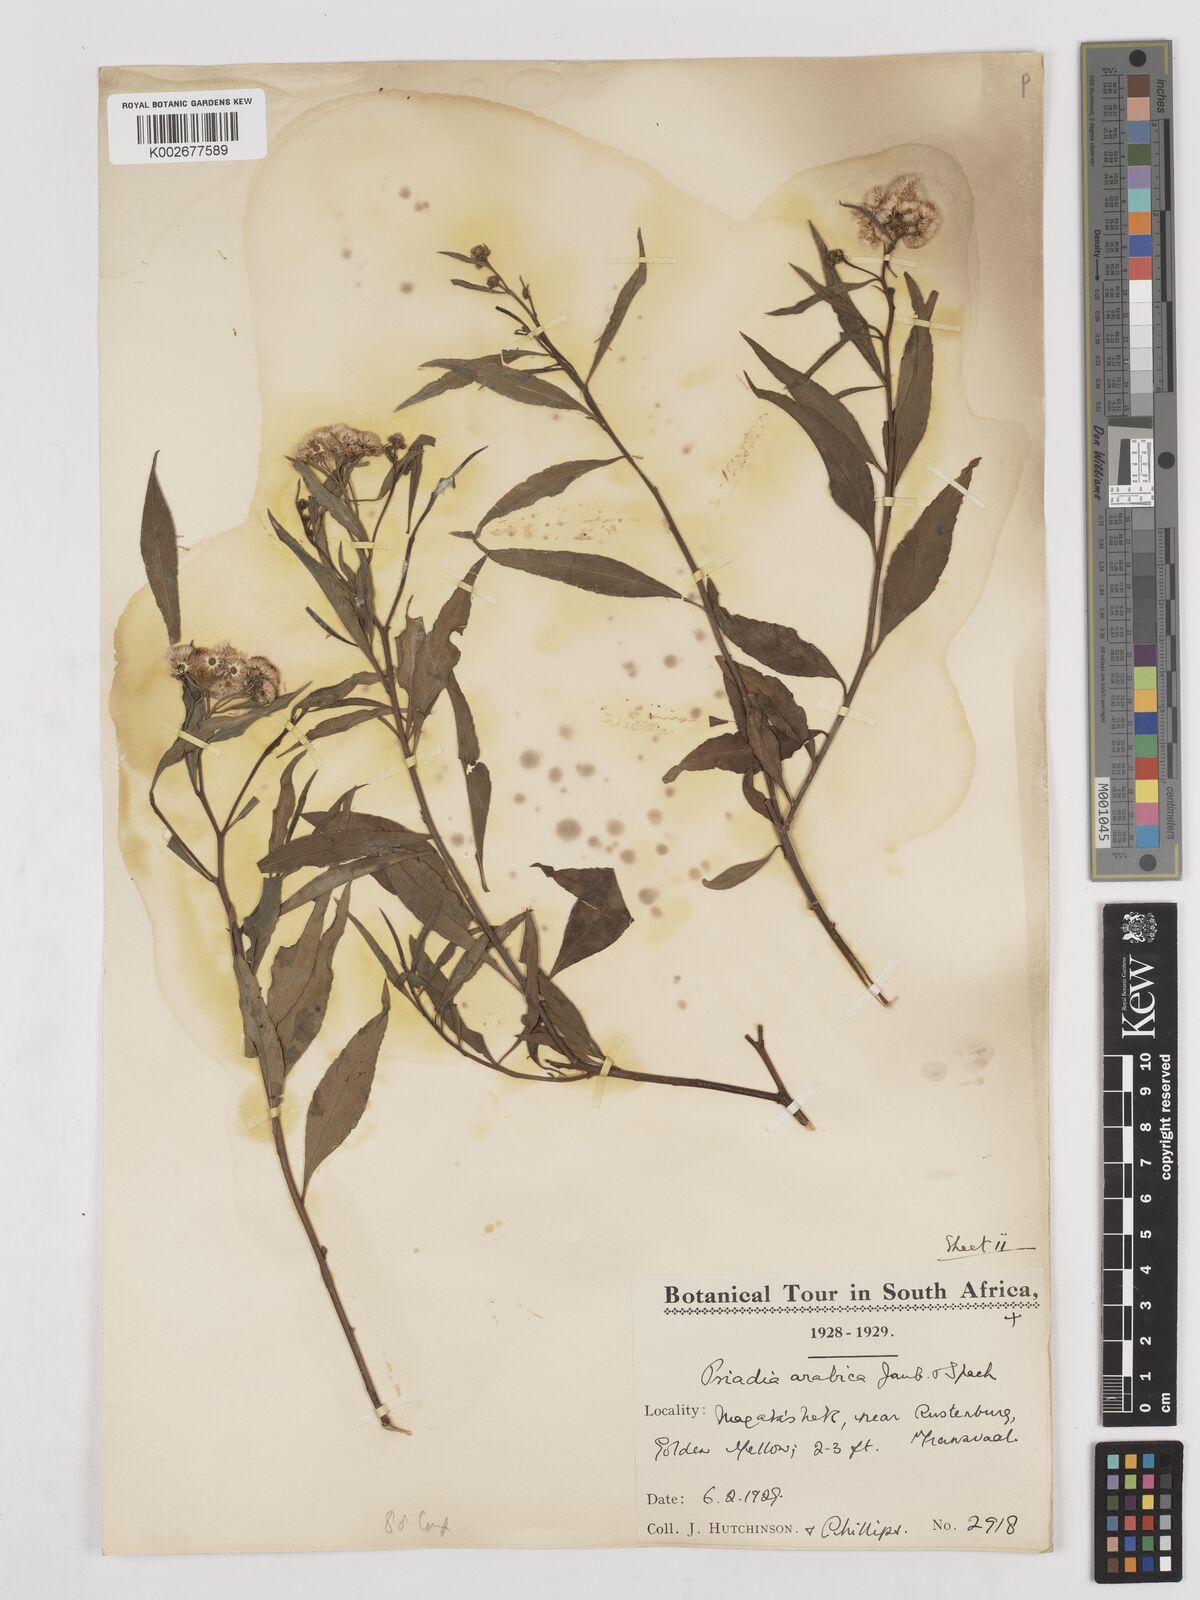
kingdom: Plantae
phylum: Tracheophyta
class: Magnoliopsida
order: Asterales
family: Asteraceae
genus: Psiadia
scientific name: Psiadia punctulata
